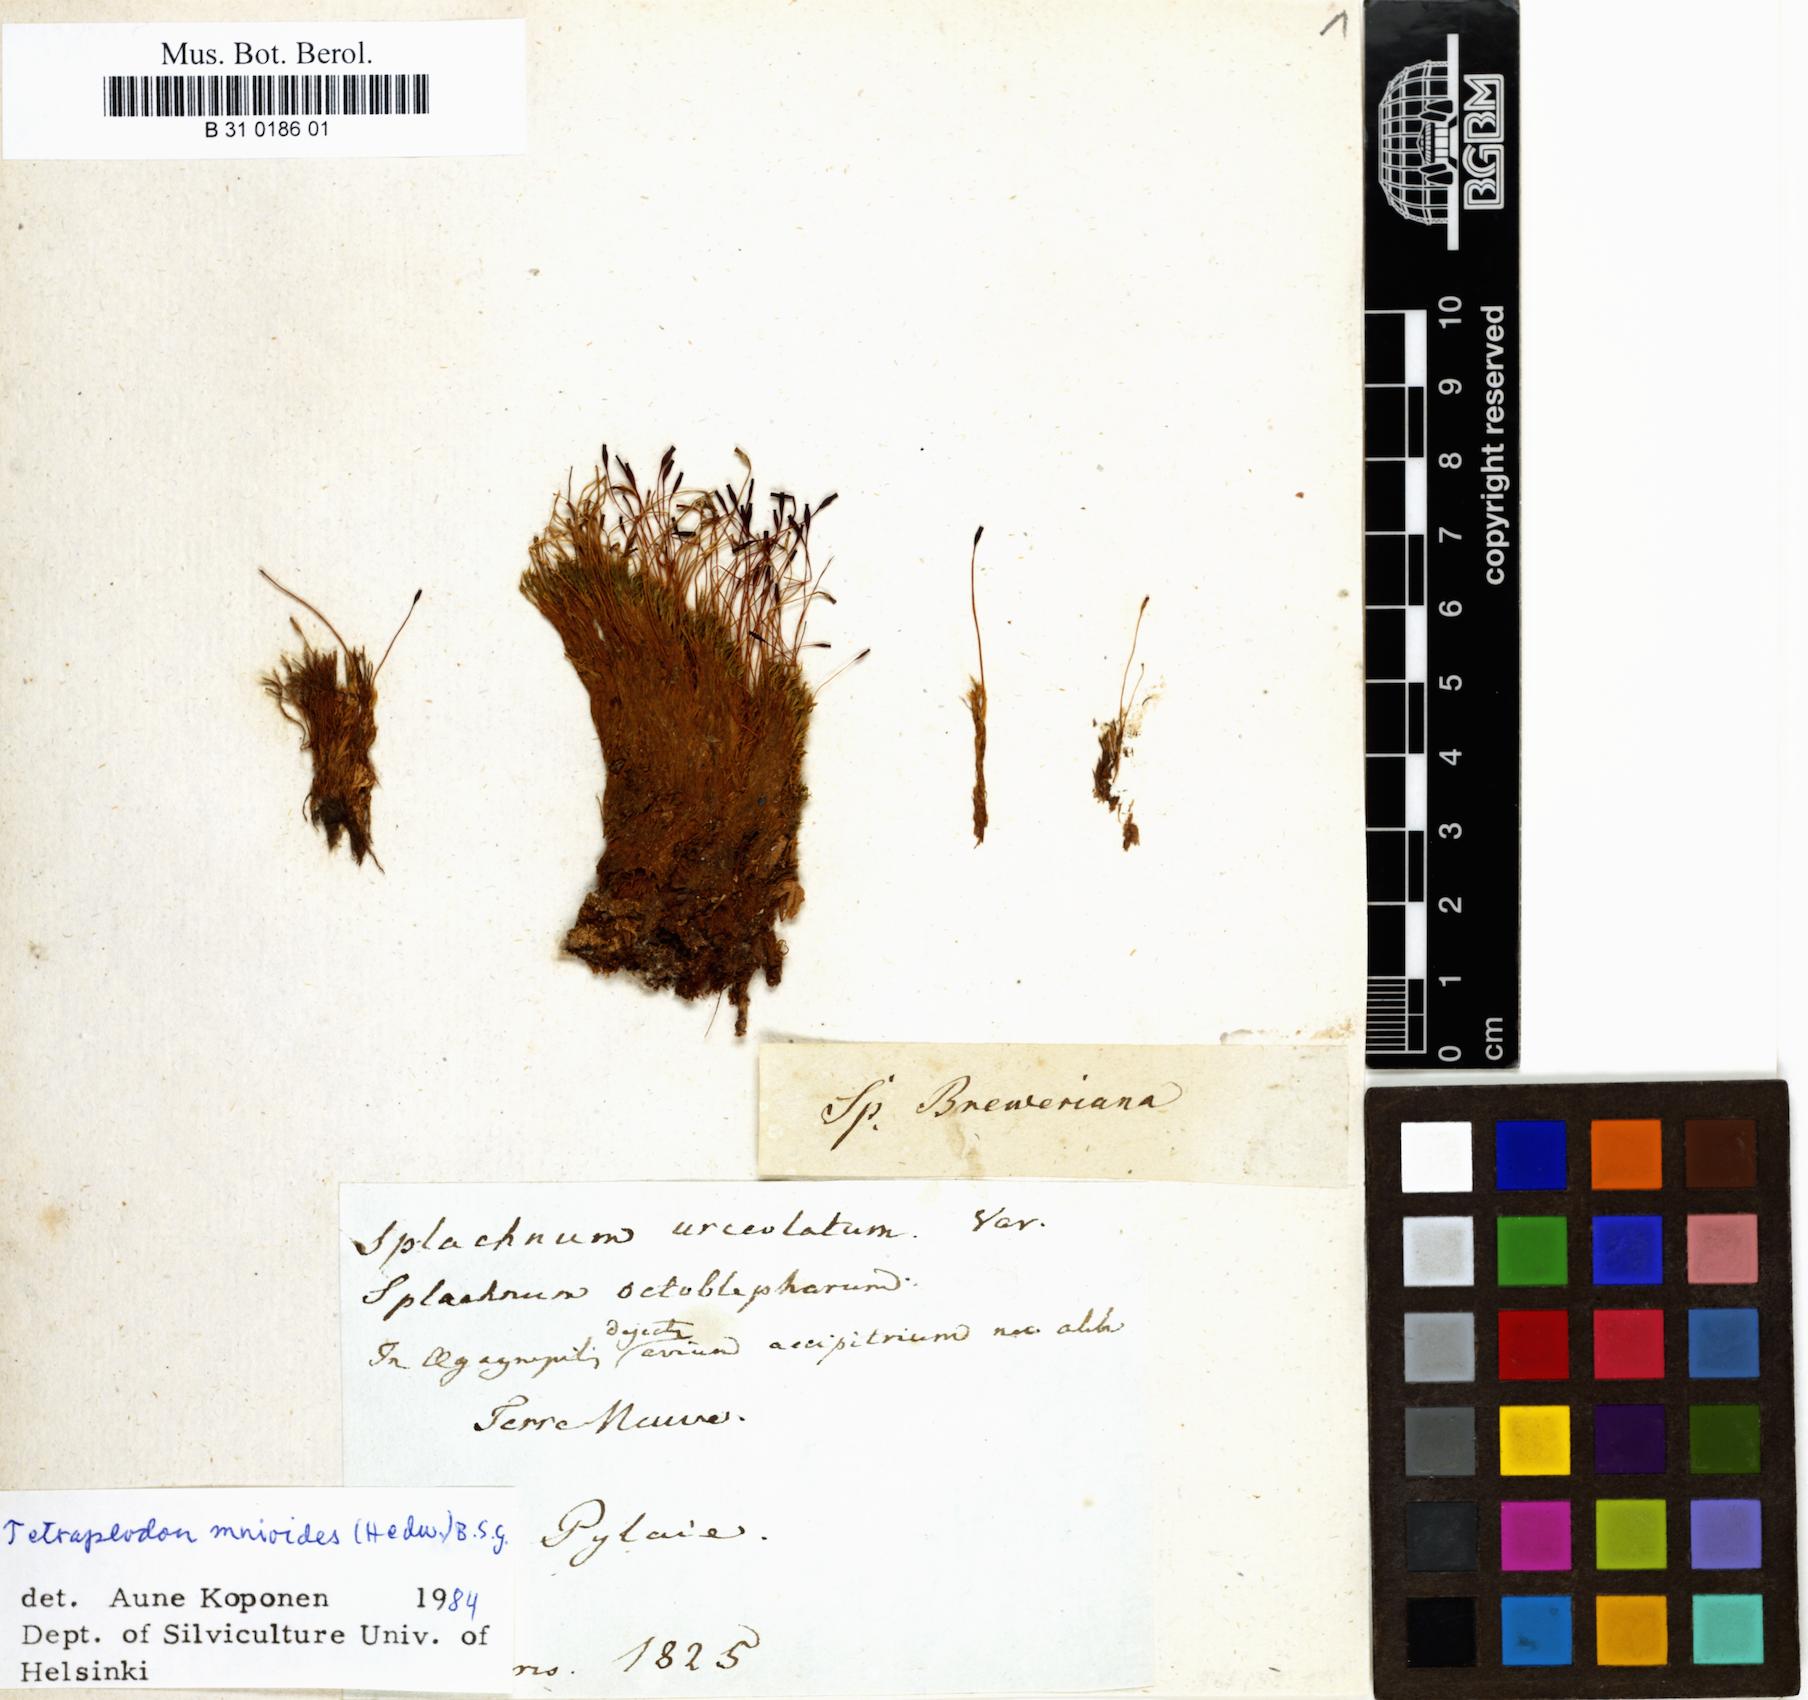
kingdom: Plantae
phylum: Bryophyta
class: Bryopsida
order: Splachnales
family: Splachnaceae
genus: Tetraplodon
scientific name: Tetraplodon urceolatus
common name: Urceolate nitrogen moss
